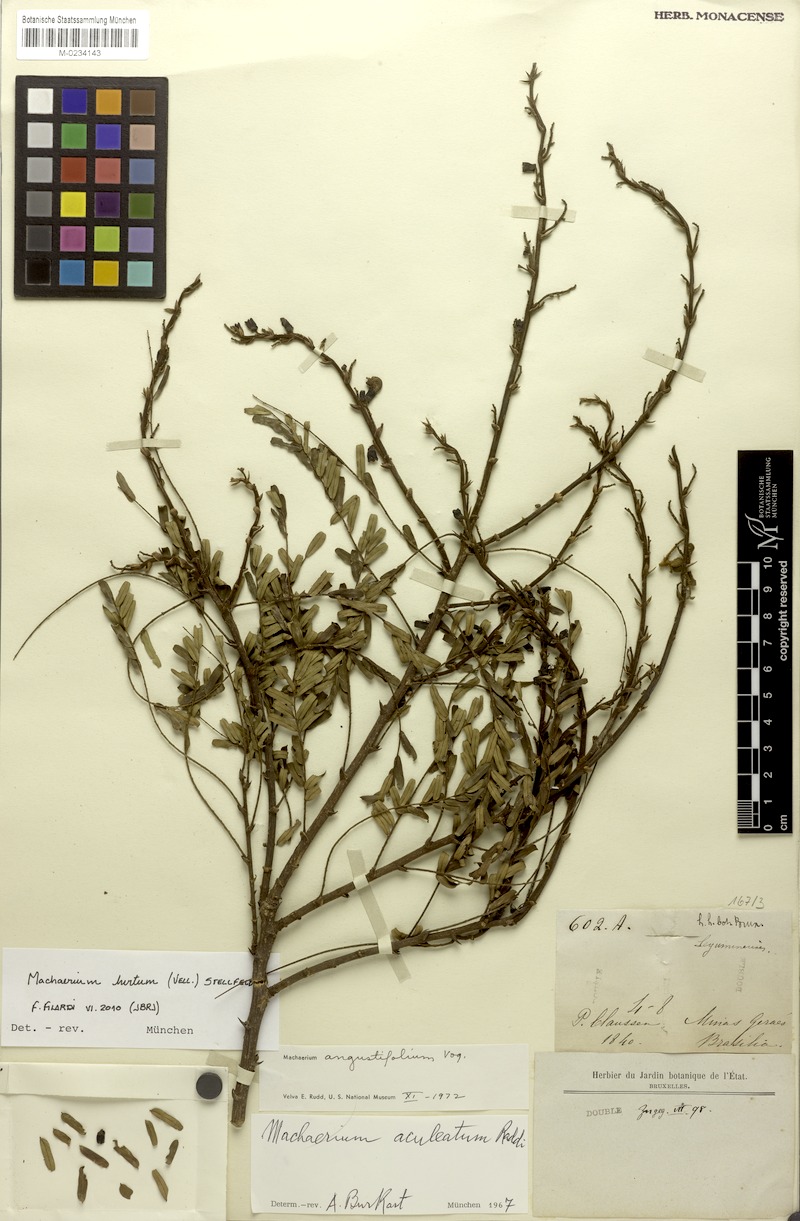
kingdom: Plantae
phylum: Tracheophyta
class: Magnoliopsida
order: Fabales
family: Fabaceae
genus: Machaerium
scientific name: Machaerium hirtum
